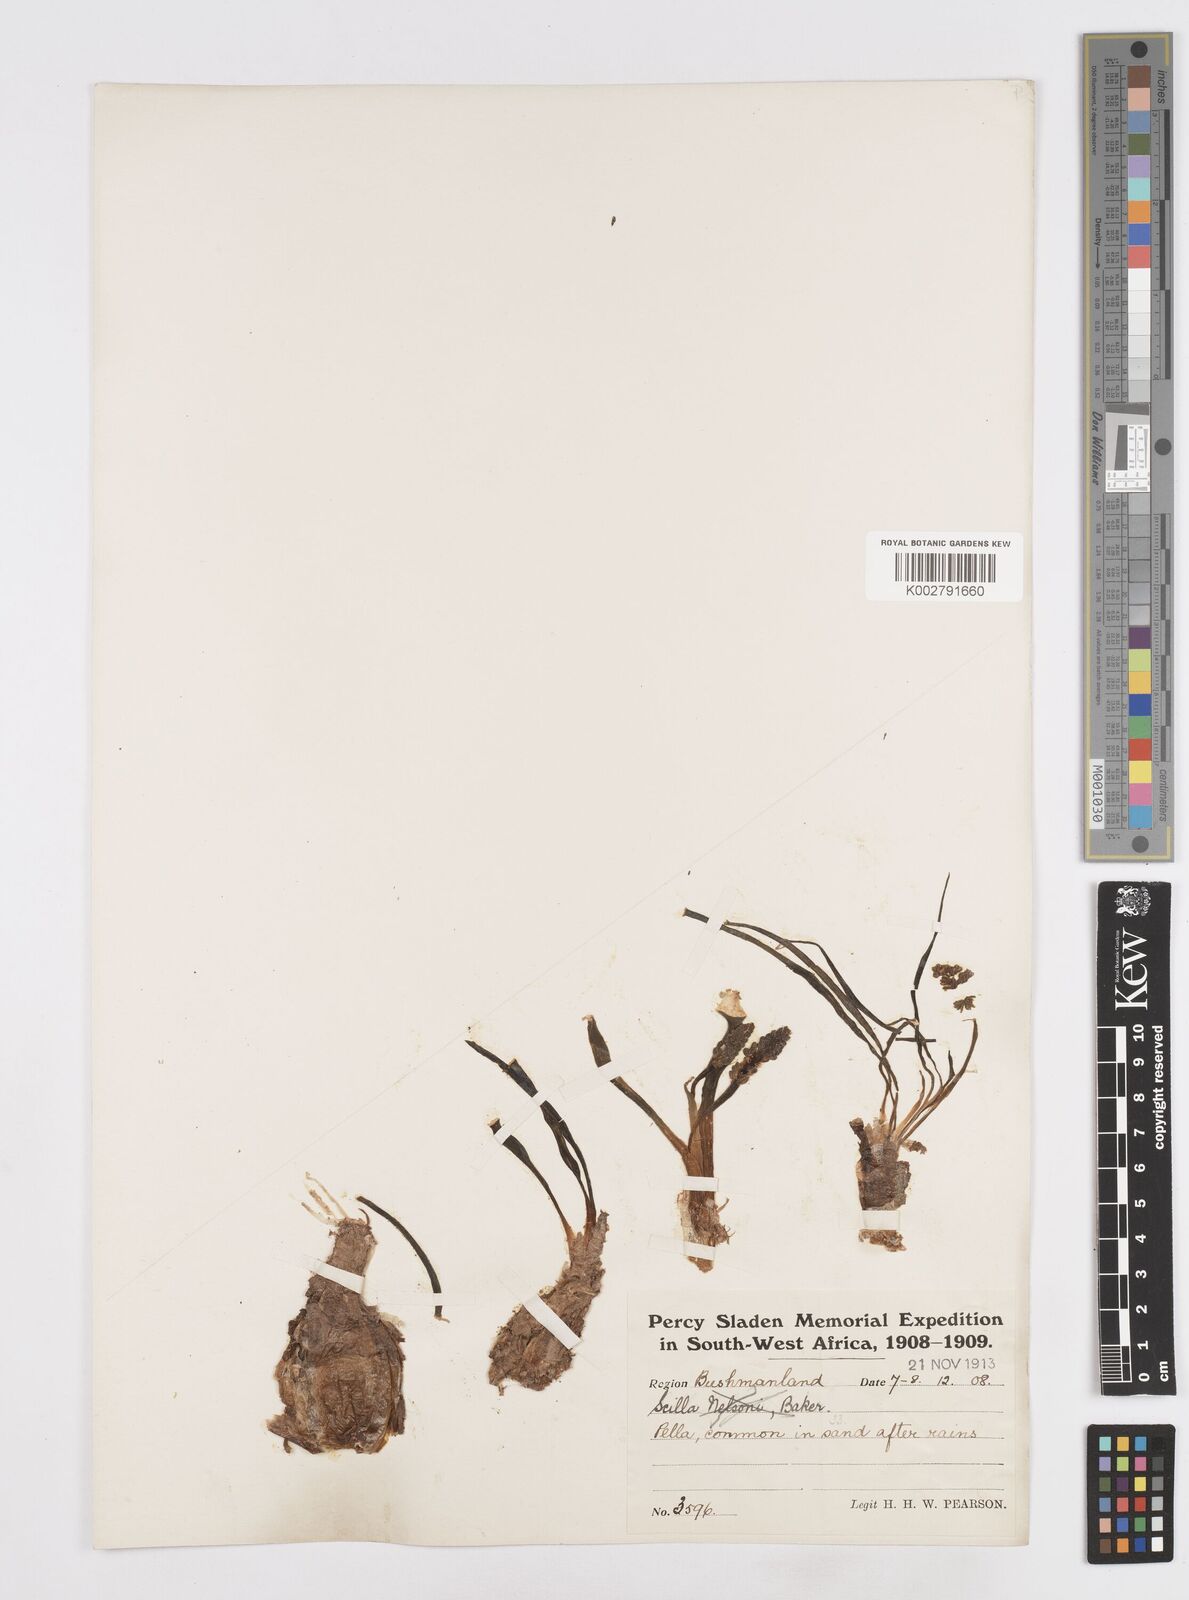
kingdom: Plantae
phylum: Tracheophyta
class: Liliopsida
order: Asparagales
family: Asparagaceae
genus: Scilla
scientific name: Scilla
